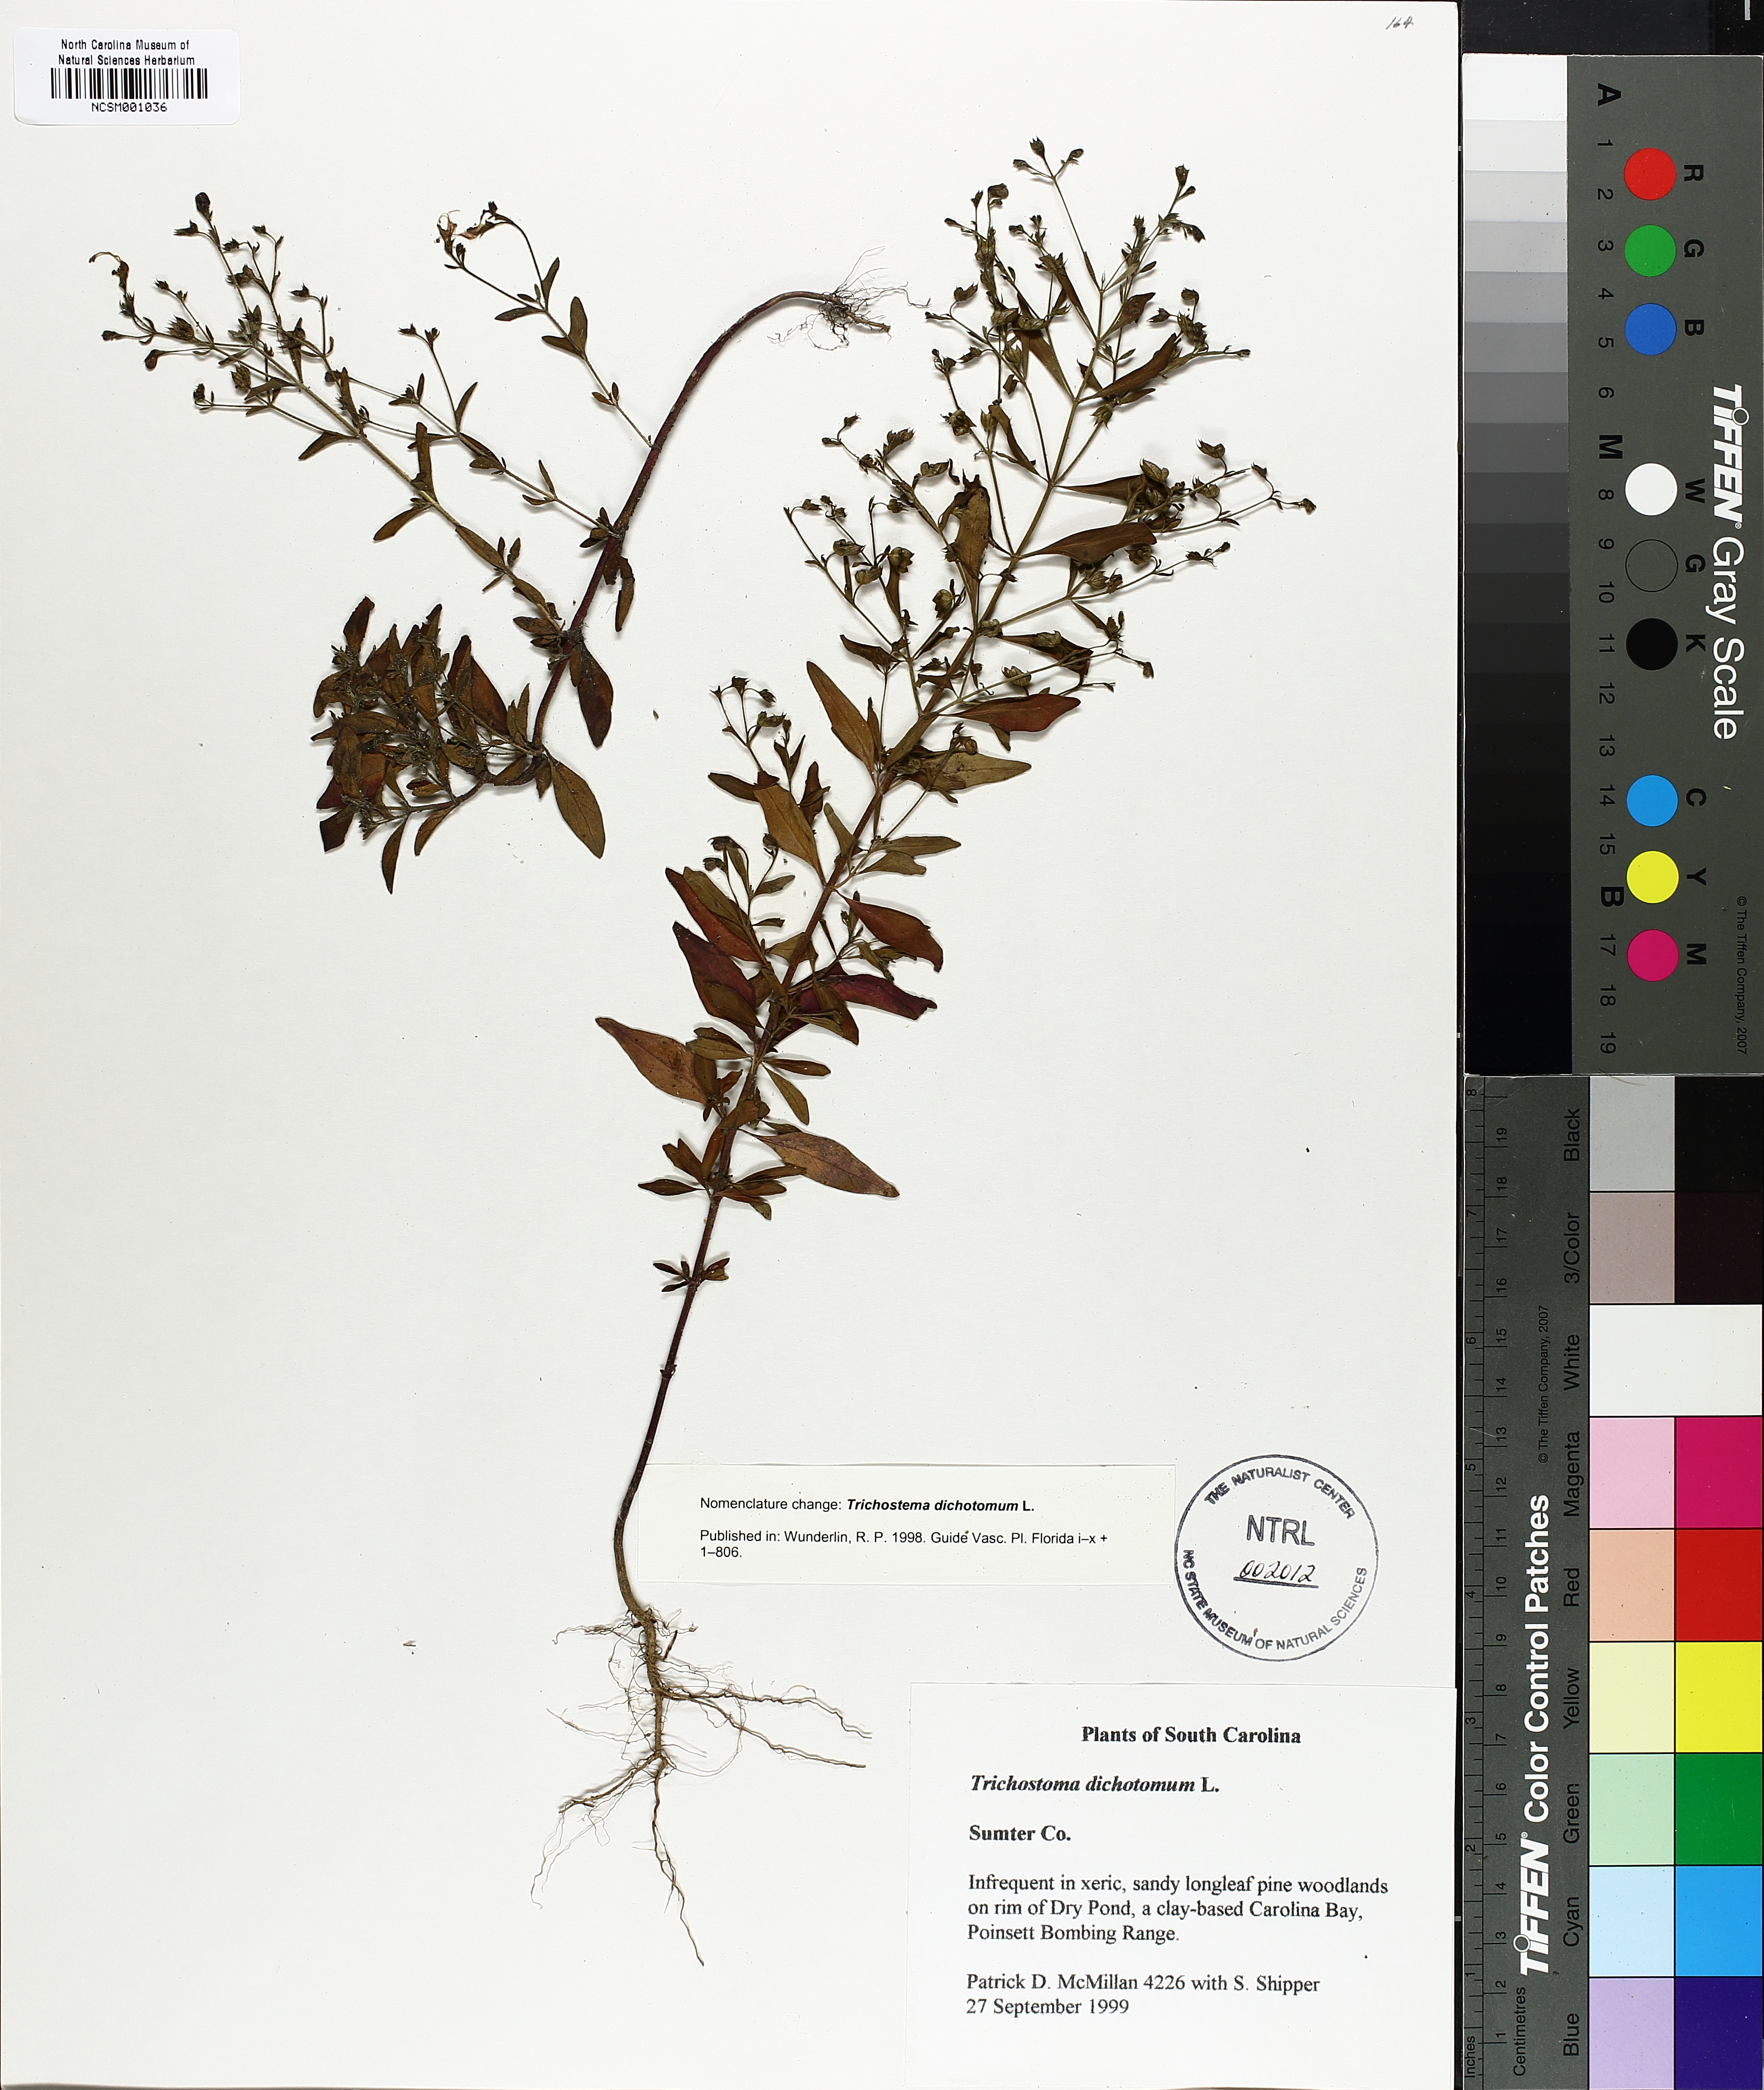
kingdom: Plantae
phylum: Tracheophyta
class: Magnoliopsida
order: Lamiales
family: Lamiaceae
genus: Trichostema
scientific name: Trichostema dichotomum
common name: Bastard pennyroyal
